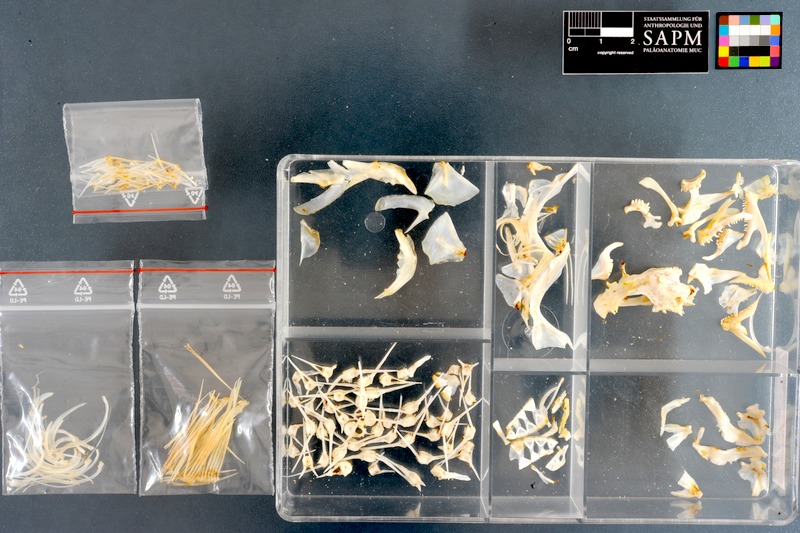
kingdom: Animalia
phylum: Chordata
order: Perciformes
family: Clinidae
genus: Clinus
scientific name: Clinus superciliosus
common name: Super klipfish
